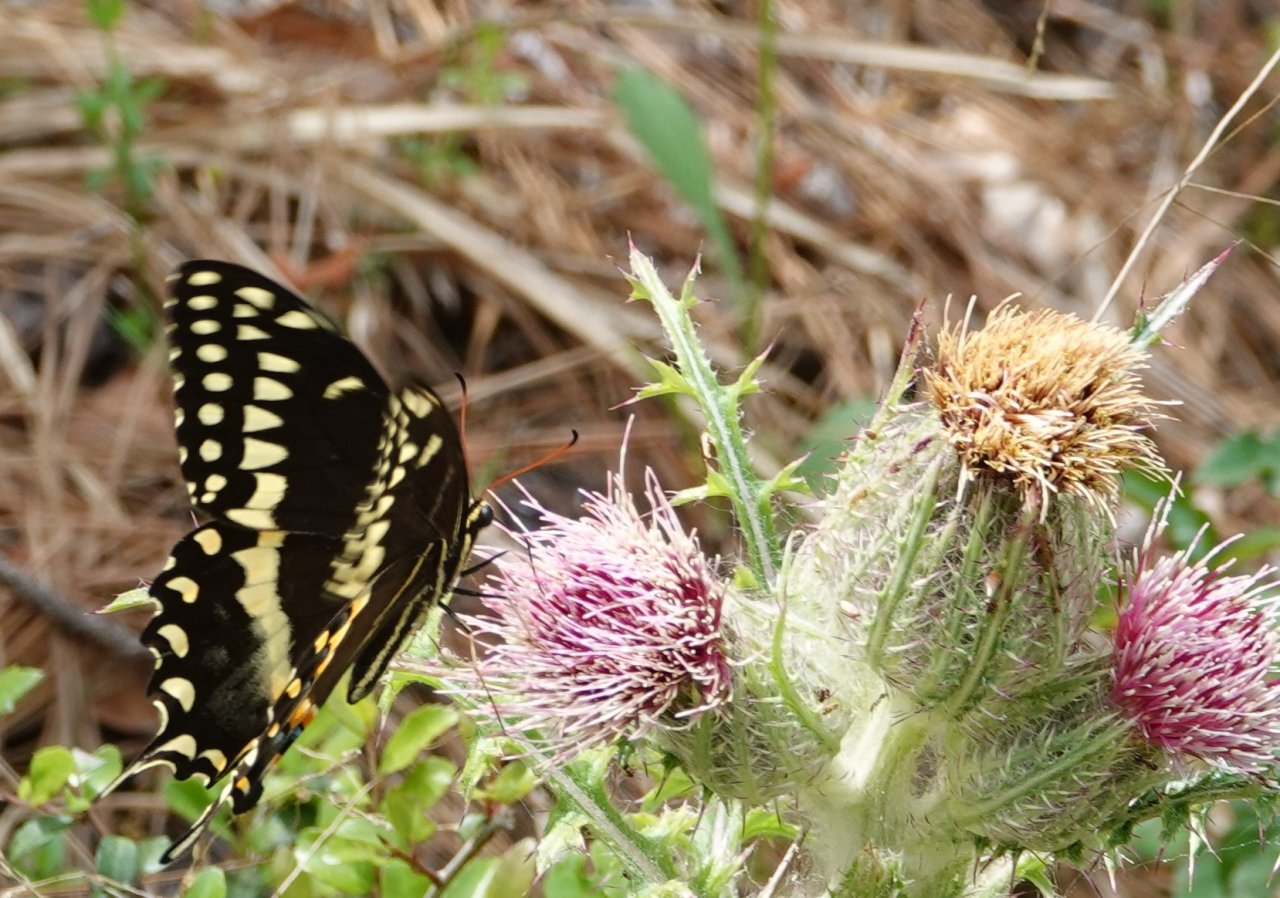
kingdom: Animalia
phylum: Arthropoda
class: Insecta
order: Lepidoptera
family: Papilionidae
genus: Pterourus
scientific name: Pterourus palamedes
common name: Palamedes Swallowtail
